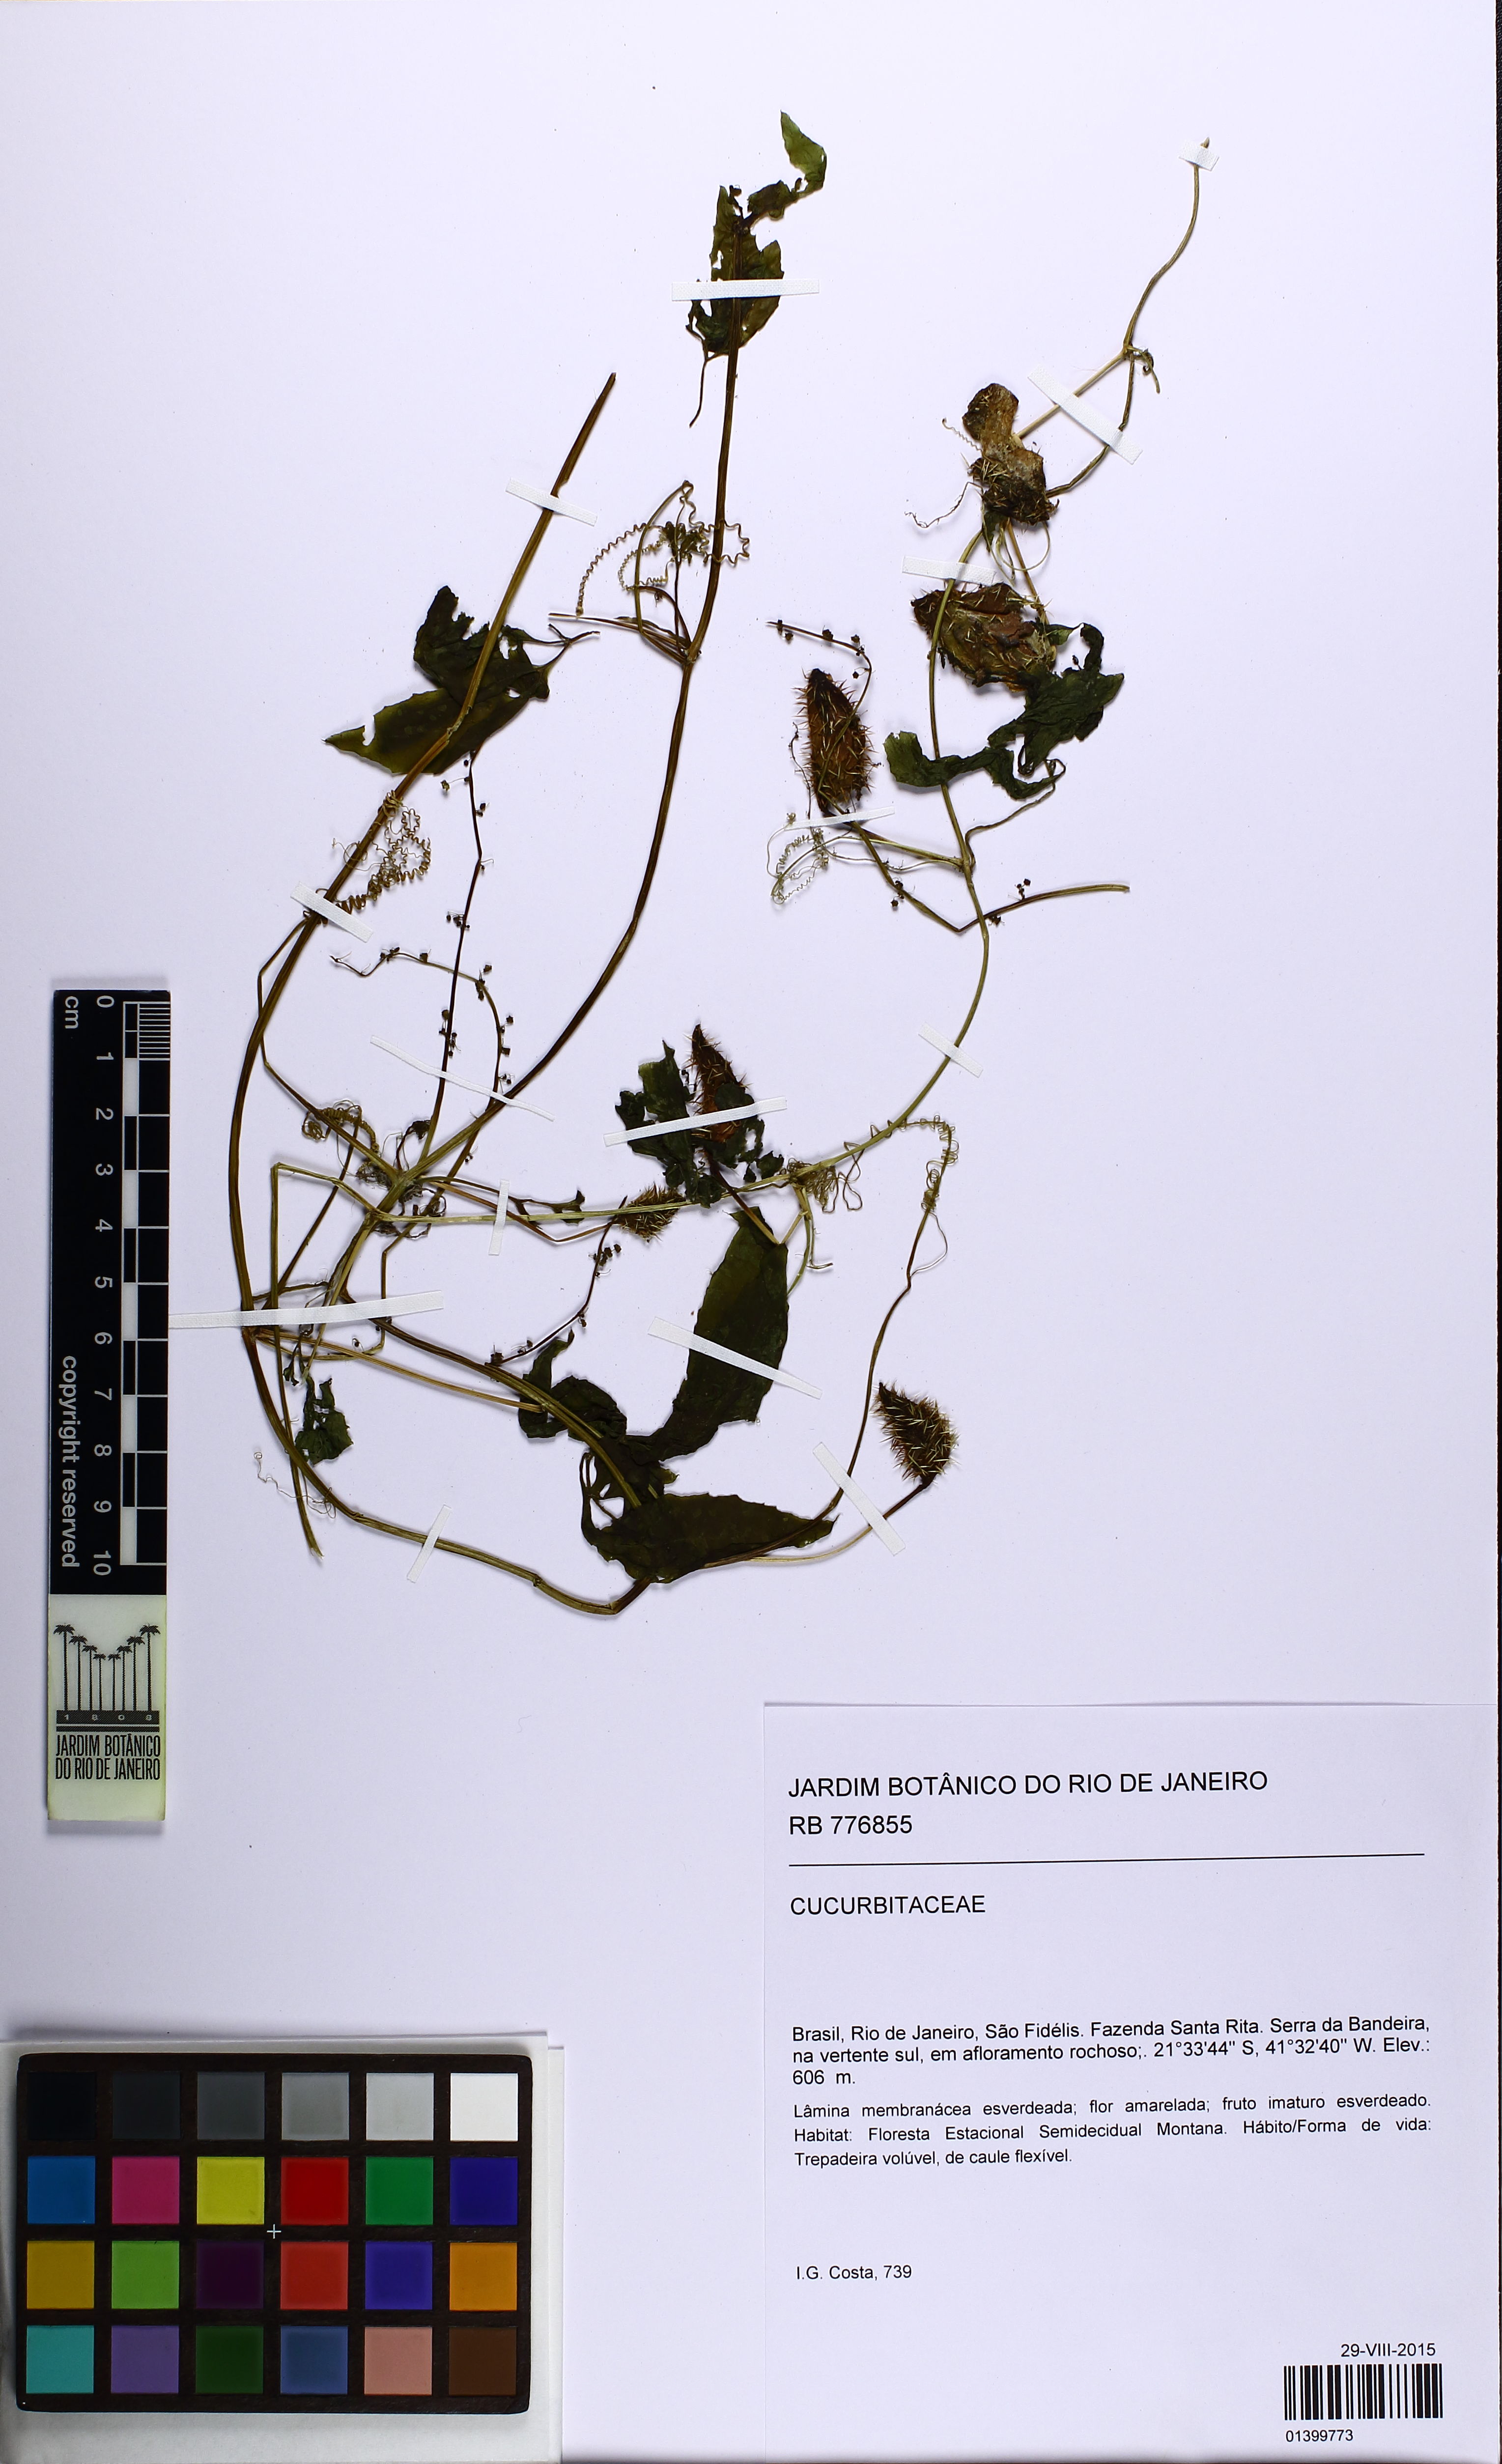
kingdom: Plantae
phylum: Tracheophyta
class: Magnoliopsida
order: Cucurbitales
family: Cucurbitaceae
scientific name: Cucurbitaceae
